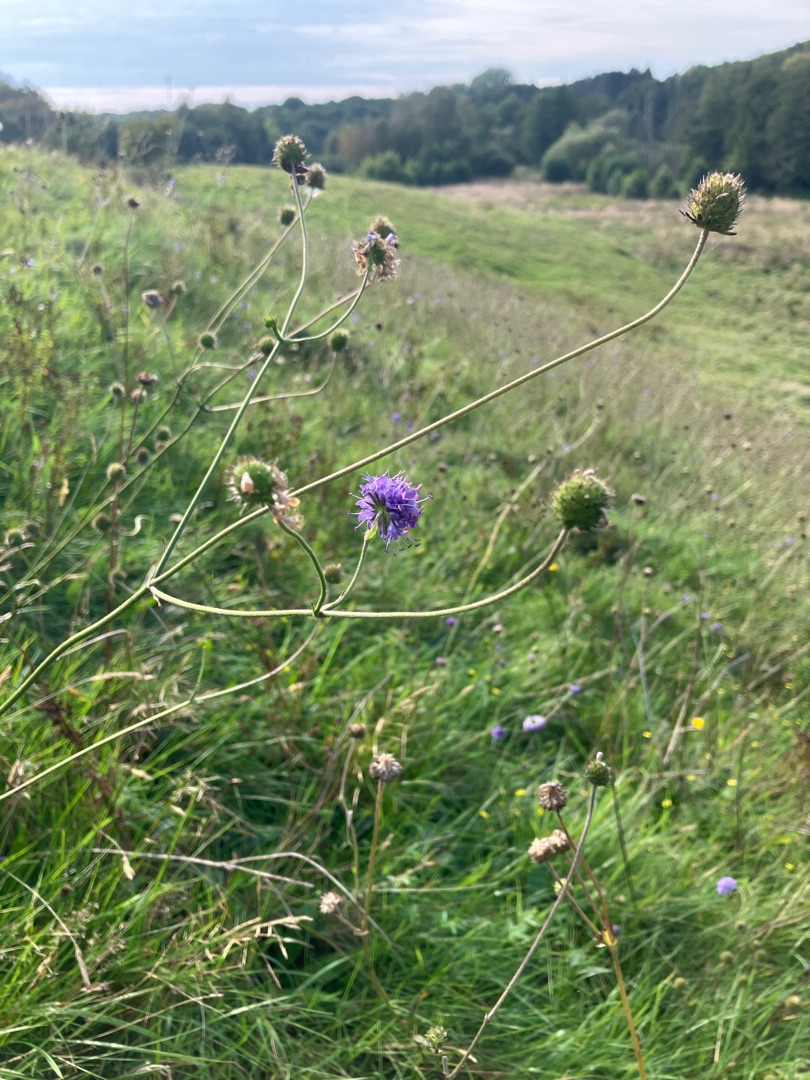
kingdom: Plantae
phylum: Tracheophyta
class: Magnoliopsida
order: Dipsacales
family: Caprifoliaceae
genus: Succisa
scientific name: Succisa pratensis
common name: Djævelsbid
